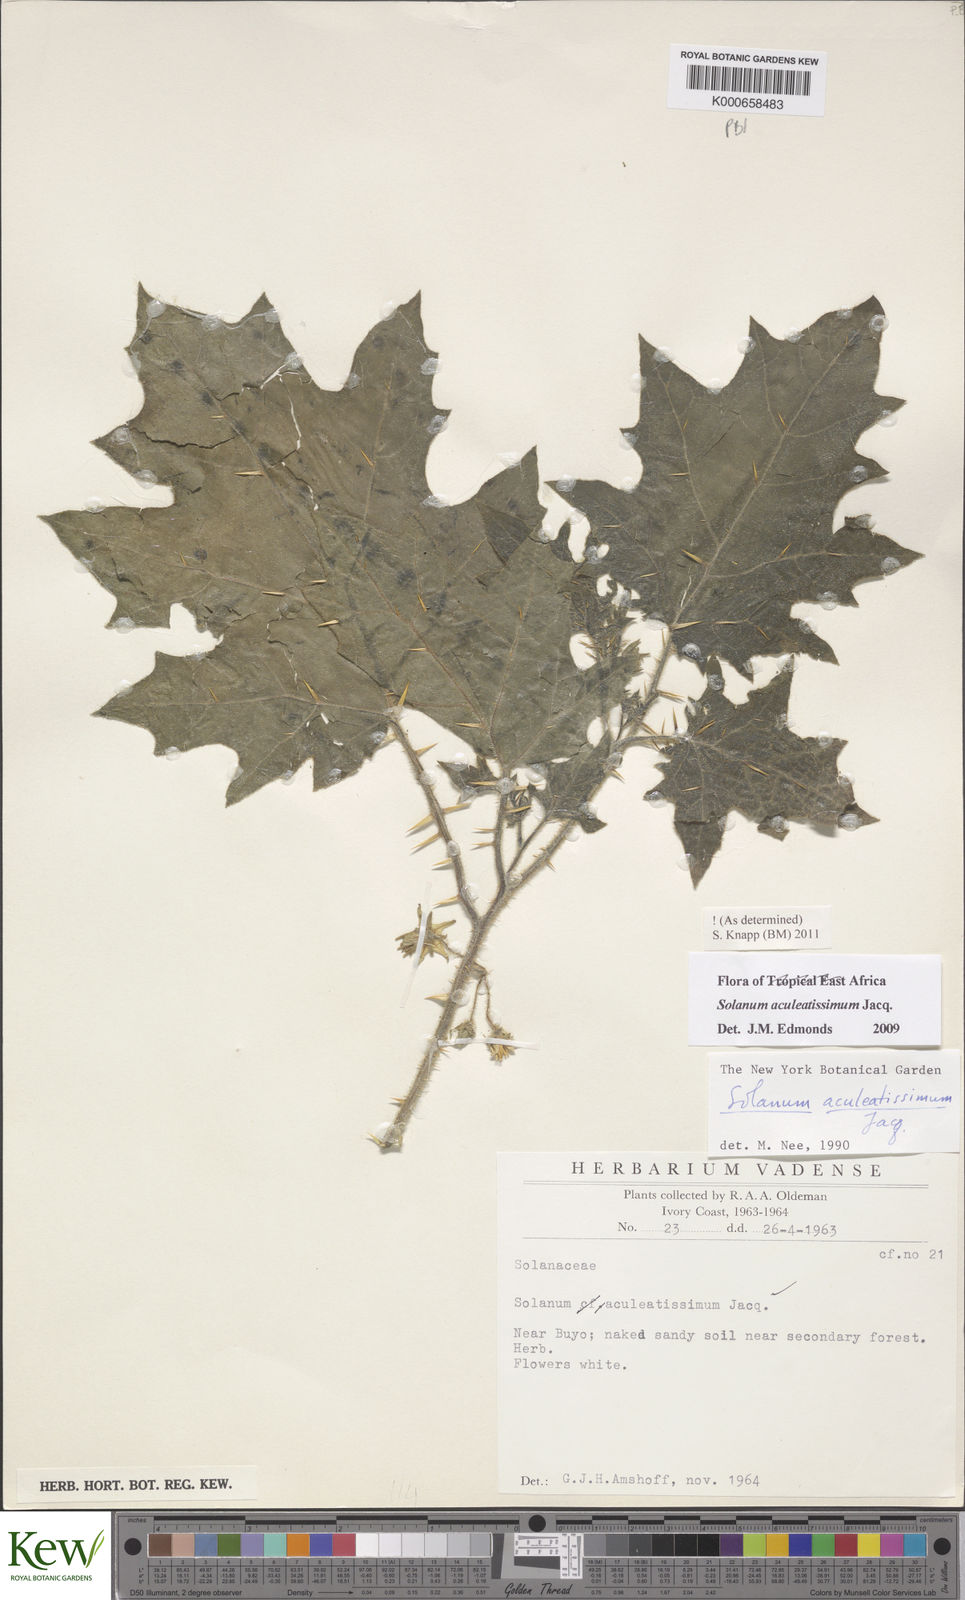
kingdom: Plantae
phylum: Tracheophyta
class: Magnoliopsida
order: Solanales
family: Solanaceae
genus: Solanum
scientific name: Solanum aculeatissimum
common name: Dutch eggplant
